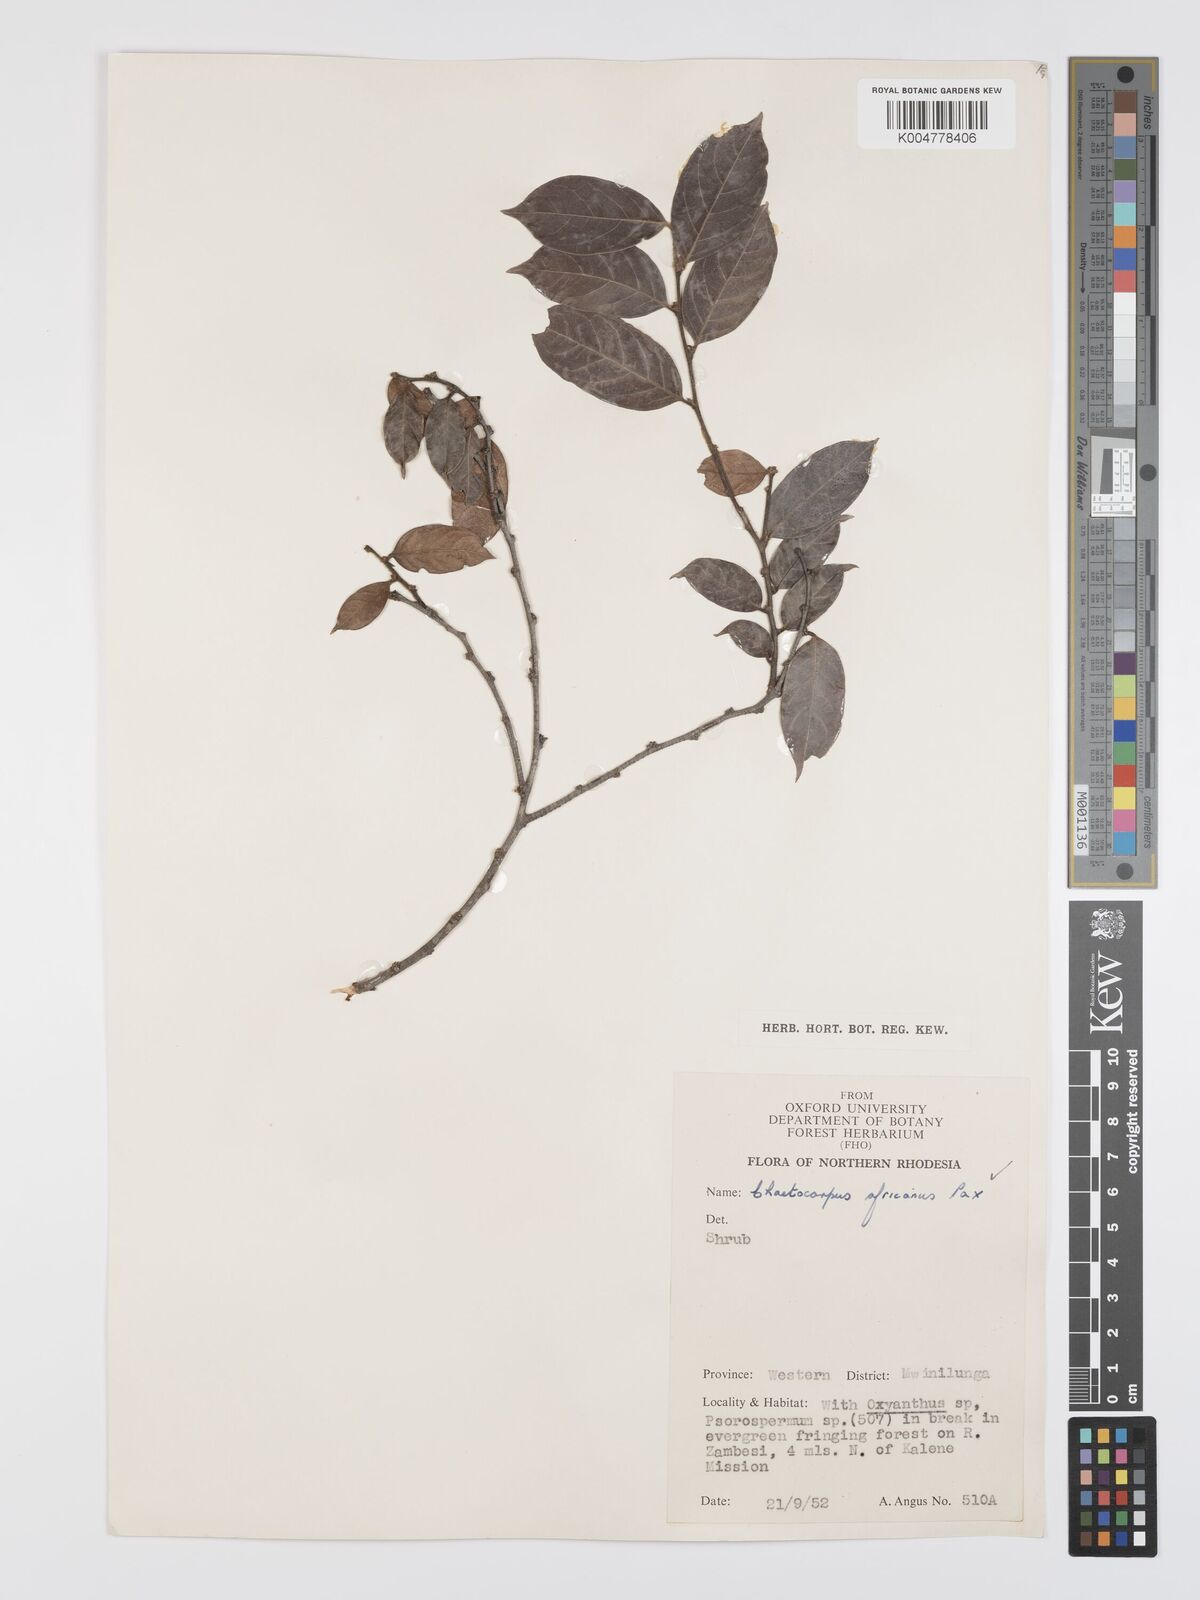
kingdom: Plantae
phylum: Tracheophyta
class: Magnoliopsida
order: Malpighiales
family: Peraceae
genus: Chaetocarpus
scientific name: Chaetocarpus africanus
